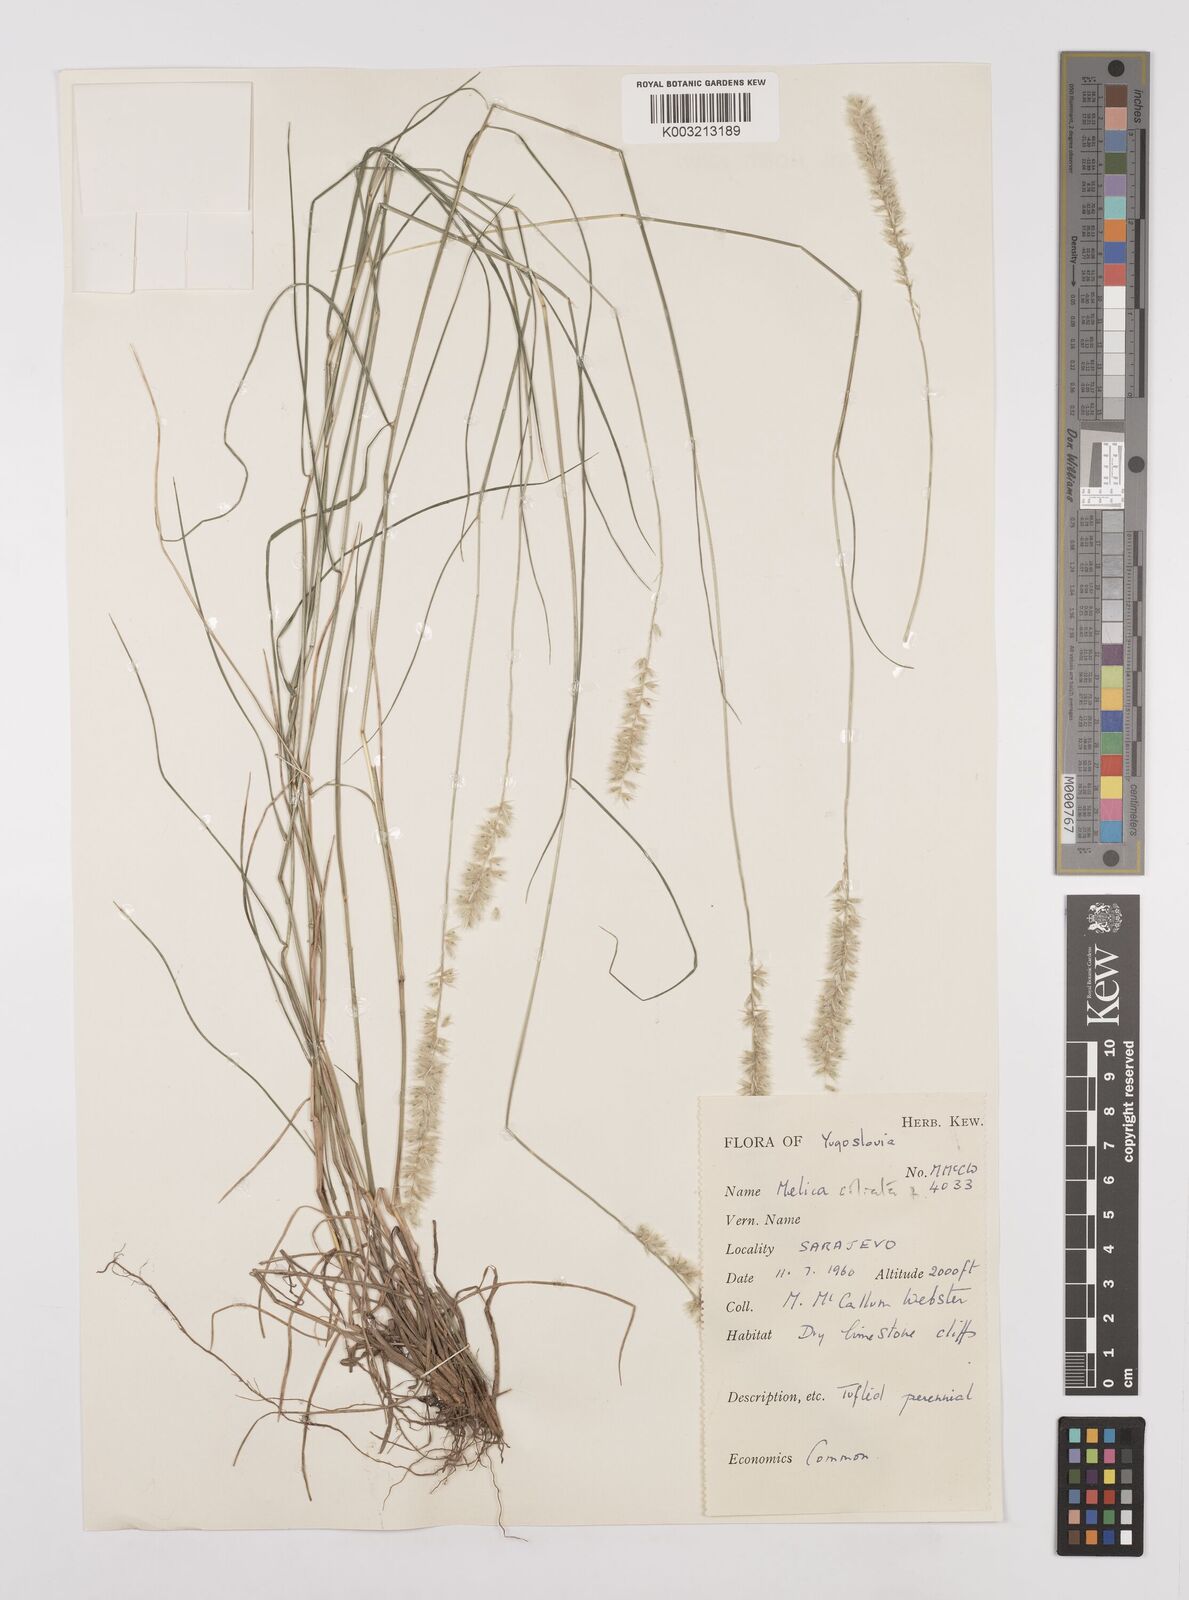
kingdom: Plantae
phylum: Tracheophyta
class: Liliopsida
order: Poales
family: Poaceae
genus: Melica
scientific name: Melica ciliata
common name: Hairy melicgrass
